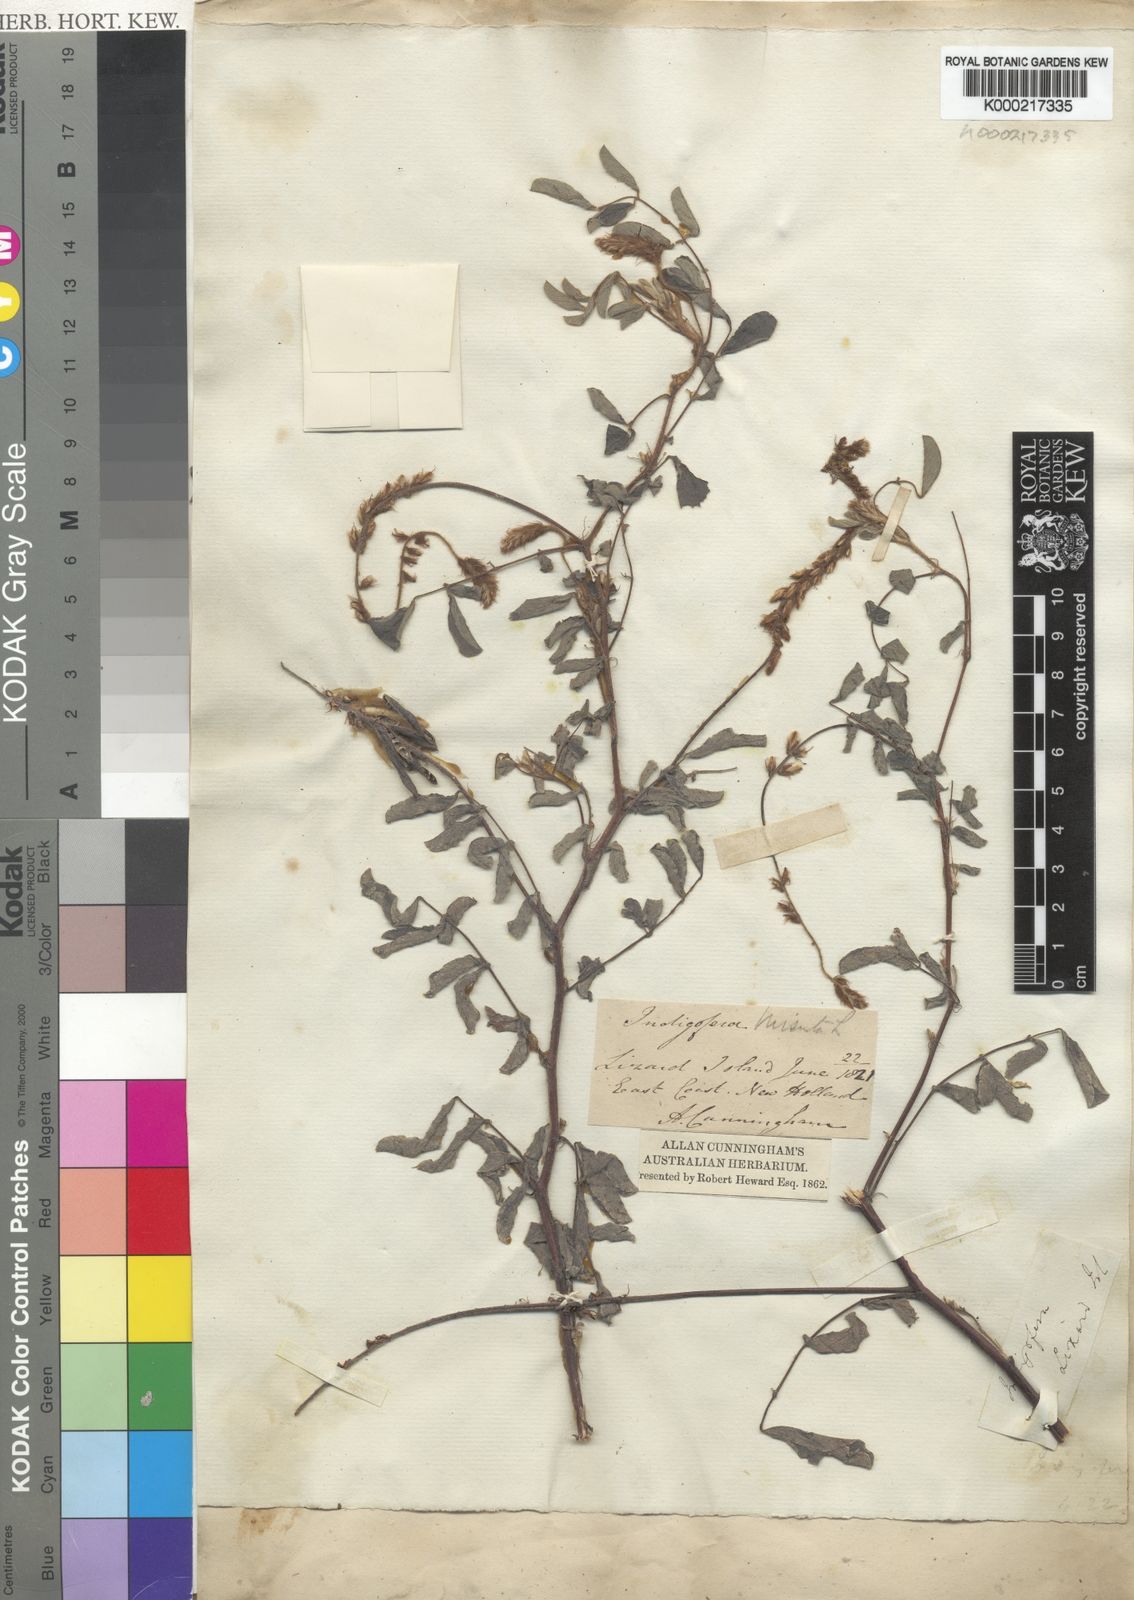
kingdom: Plantae
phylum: Tracheophyta
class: Magnoliopsida
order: Fabales
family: Fabaceae
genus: Indigofera
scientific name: Indigofera hirsuta
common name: Hairy indigo
